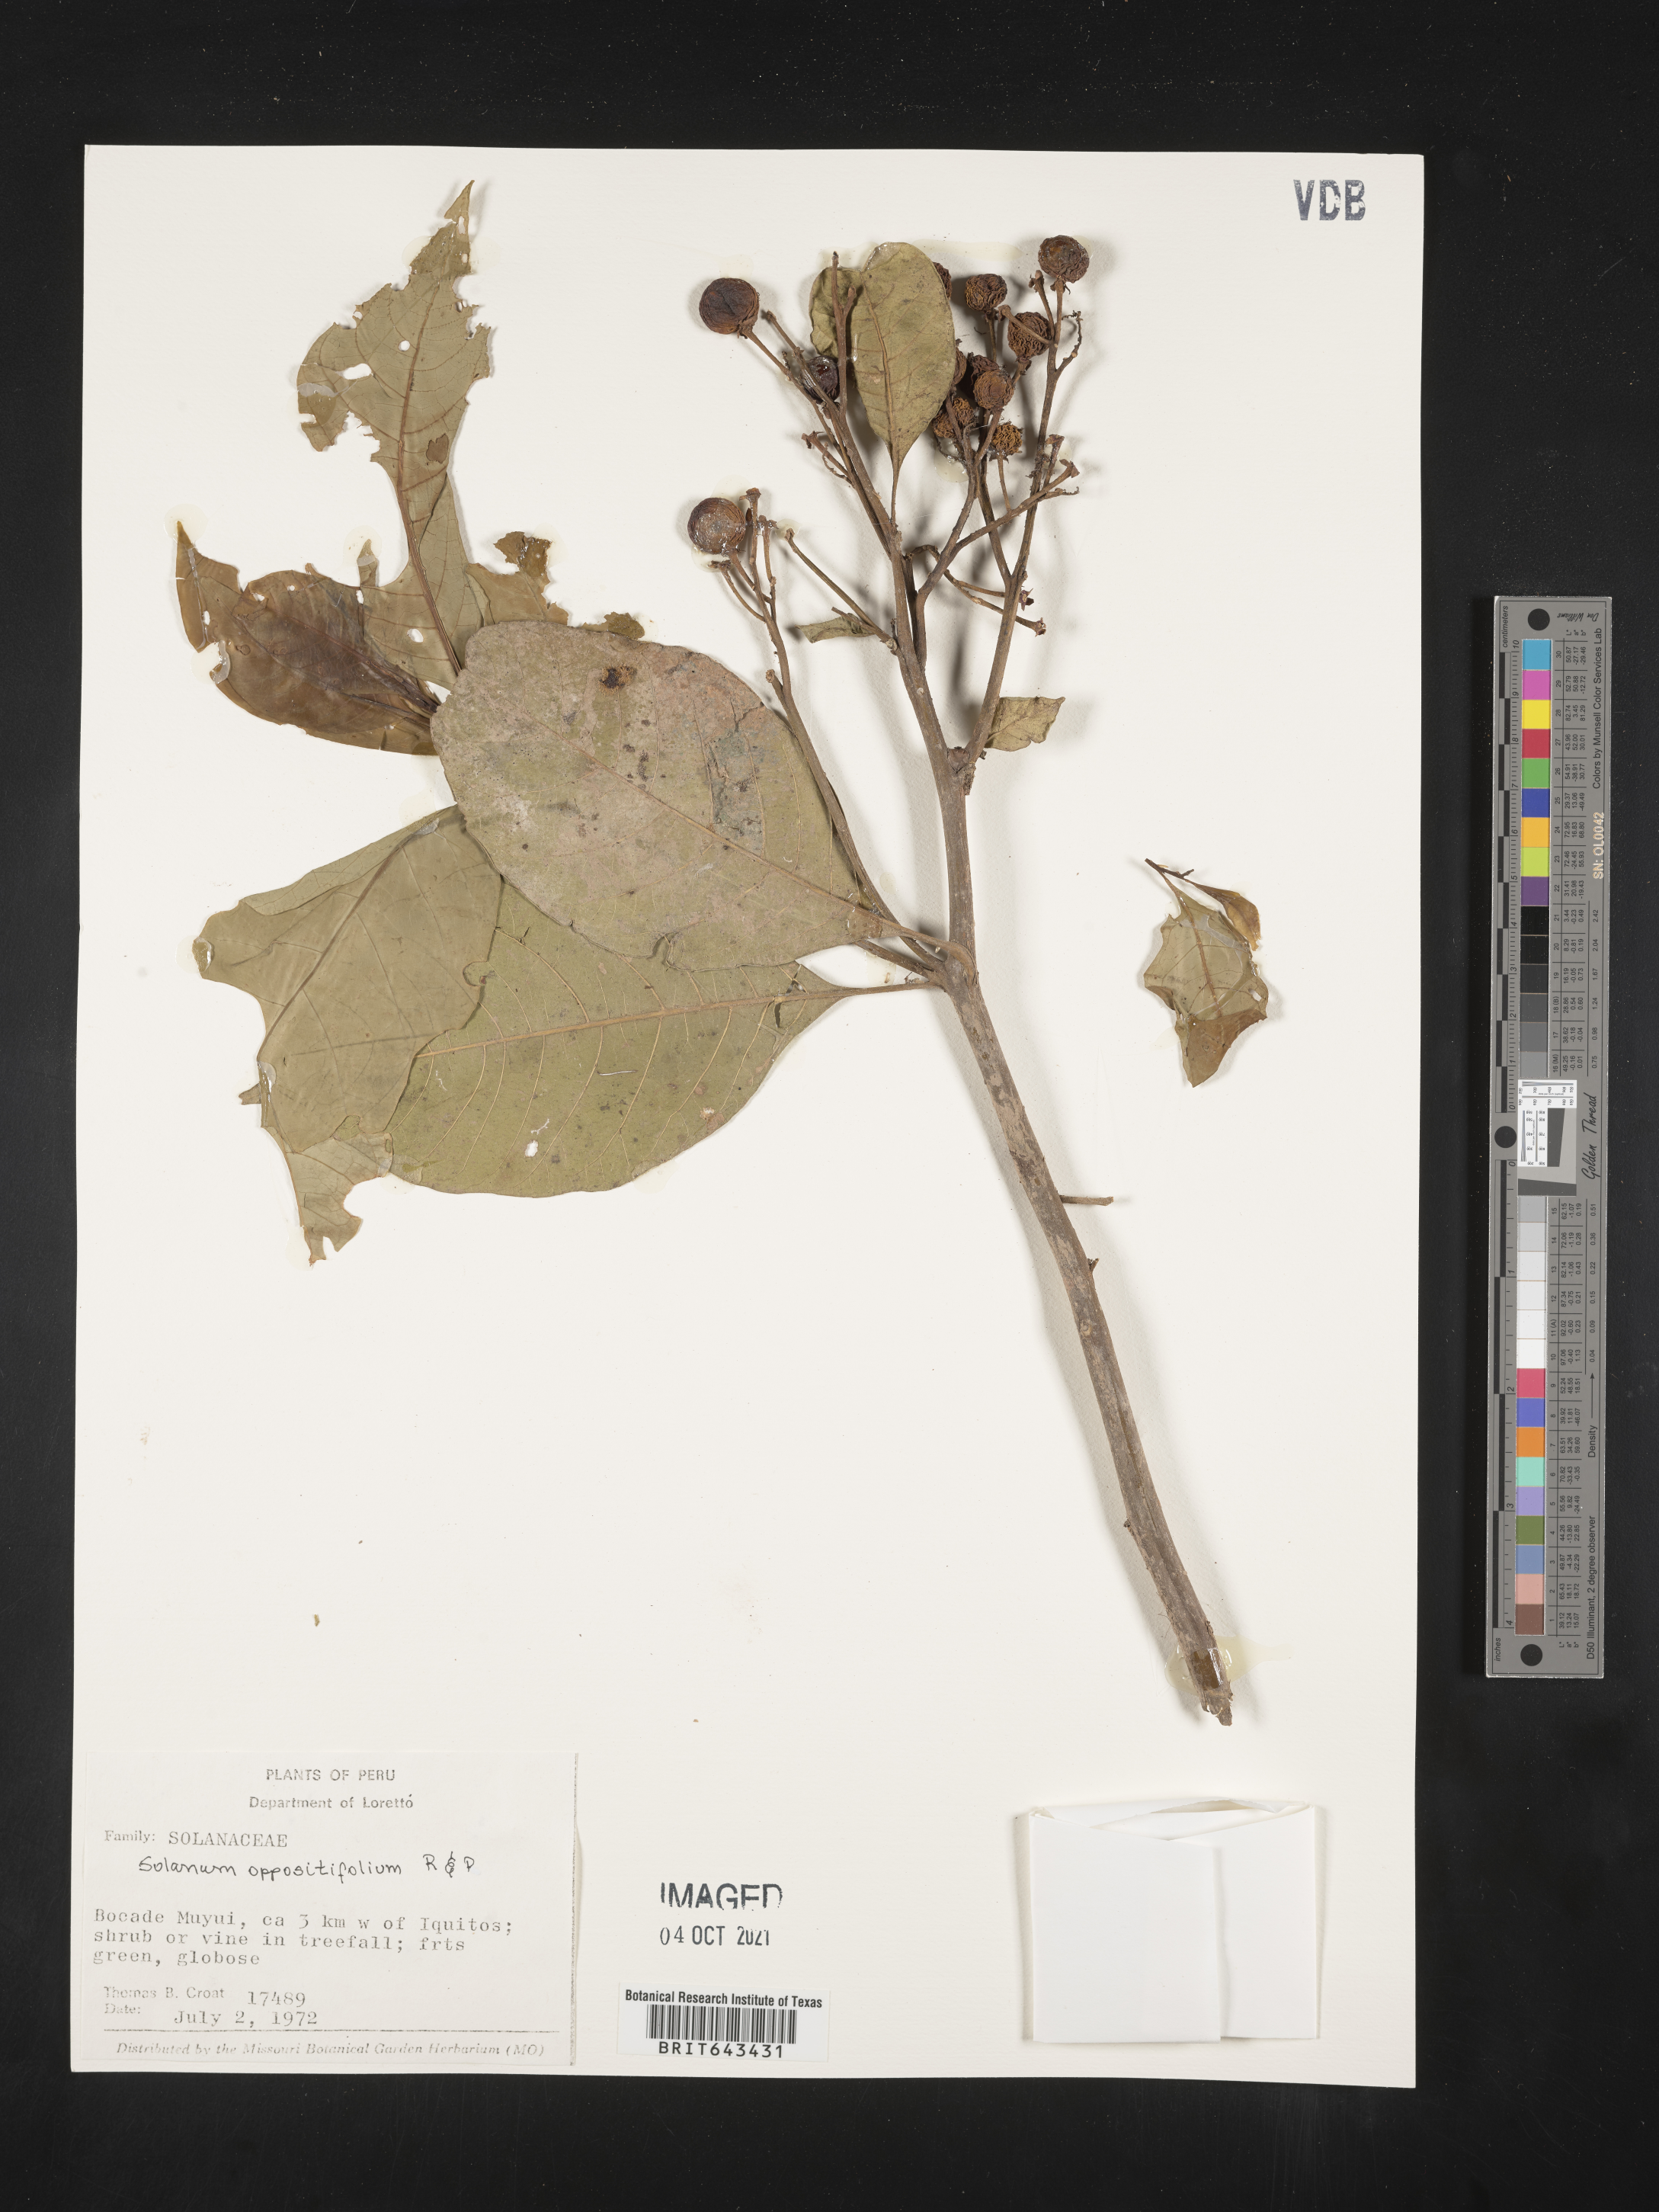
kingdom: Plantae
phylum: Tracheophyta
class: Magnoliopsida
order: Solanales
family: Solanaceae
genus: Solanum
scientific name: Solanum oppositifolium
